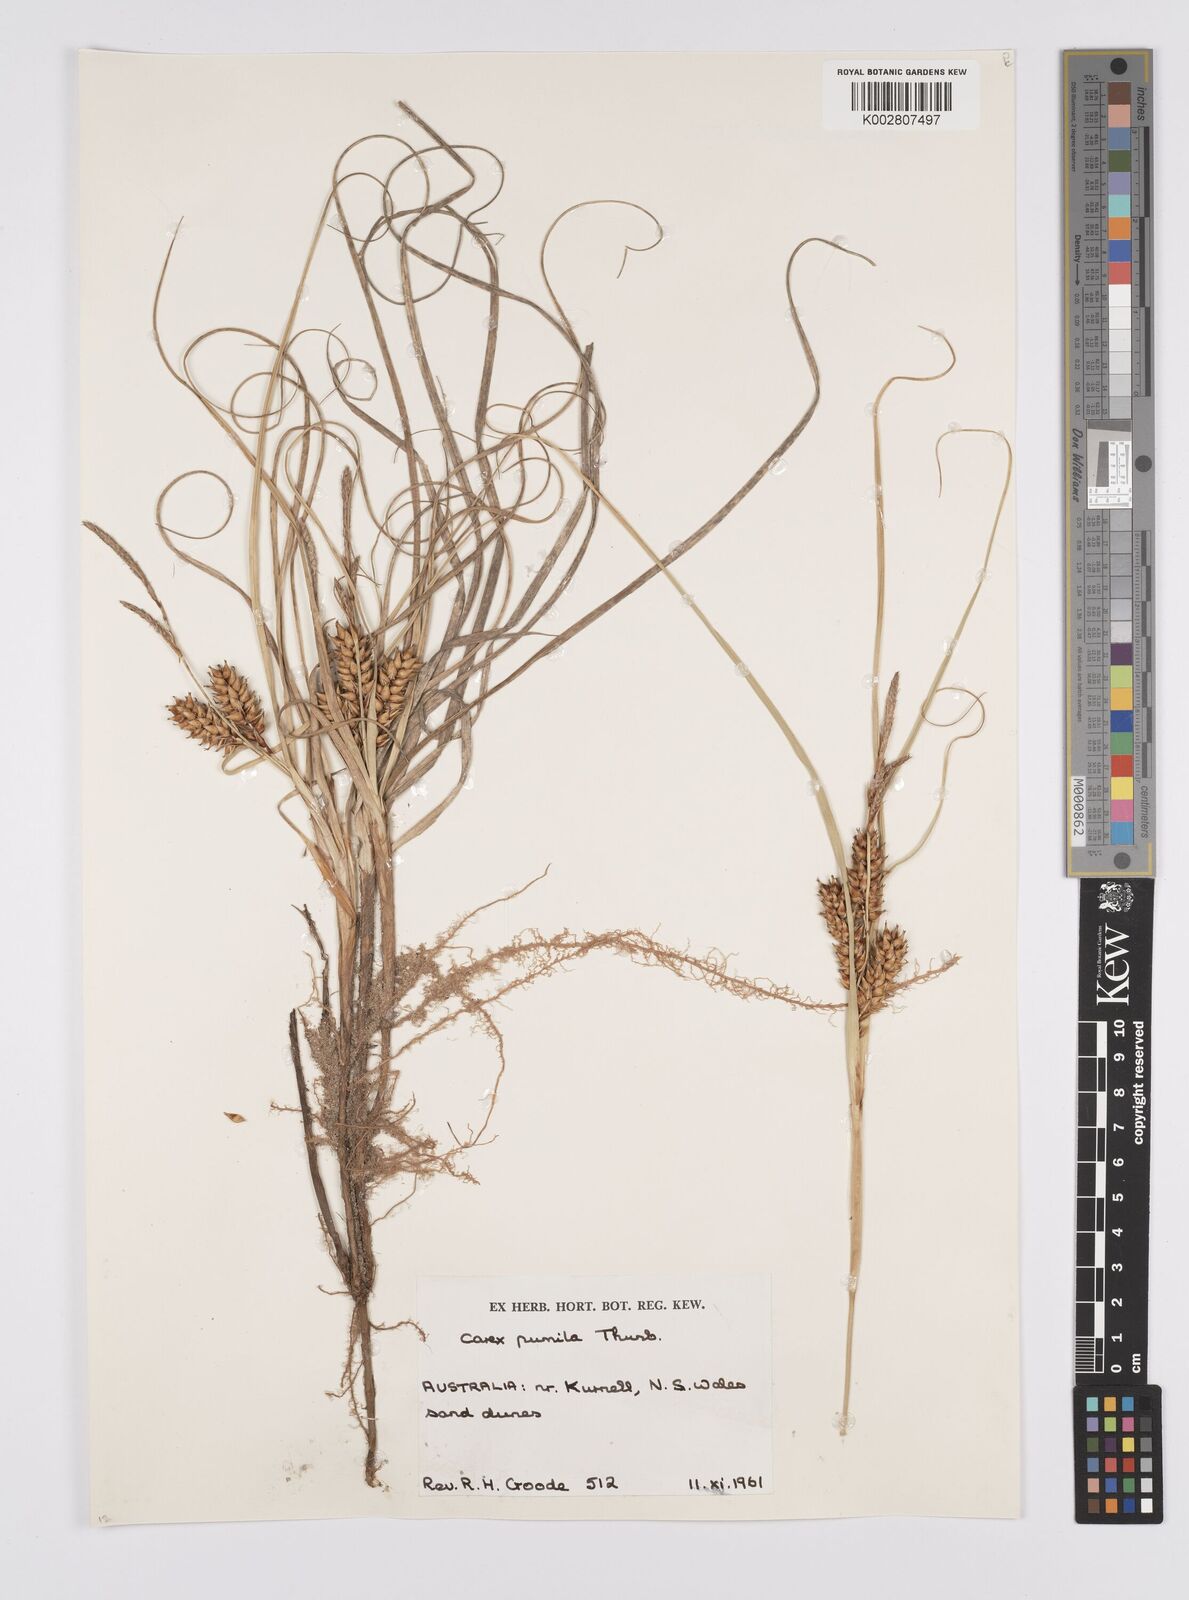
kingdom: Plantae
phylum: Tracheophyta
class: Liliopsida
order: Poales
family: Cyperaceae
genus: Carex
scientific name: Carex pumila
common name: Dwarf sedge
